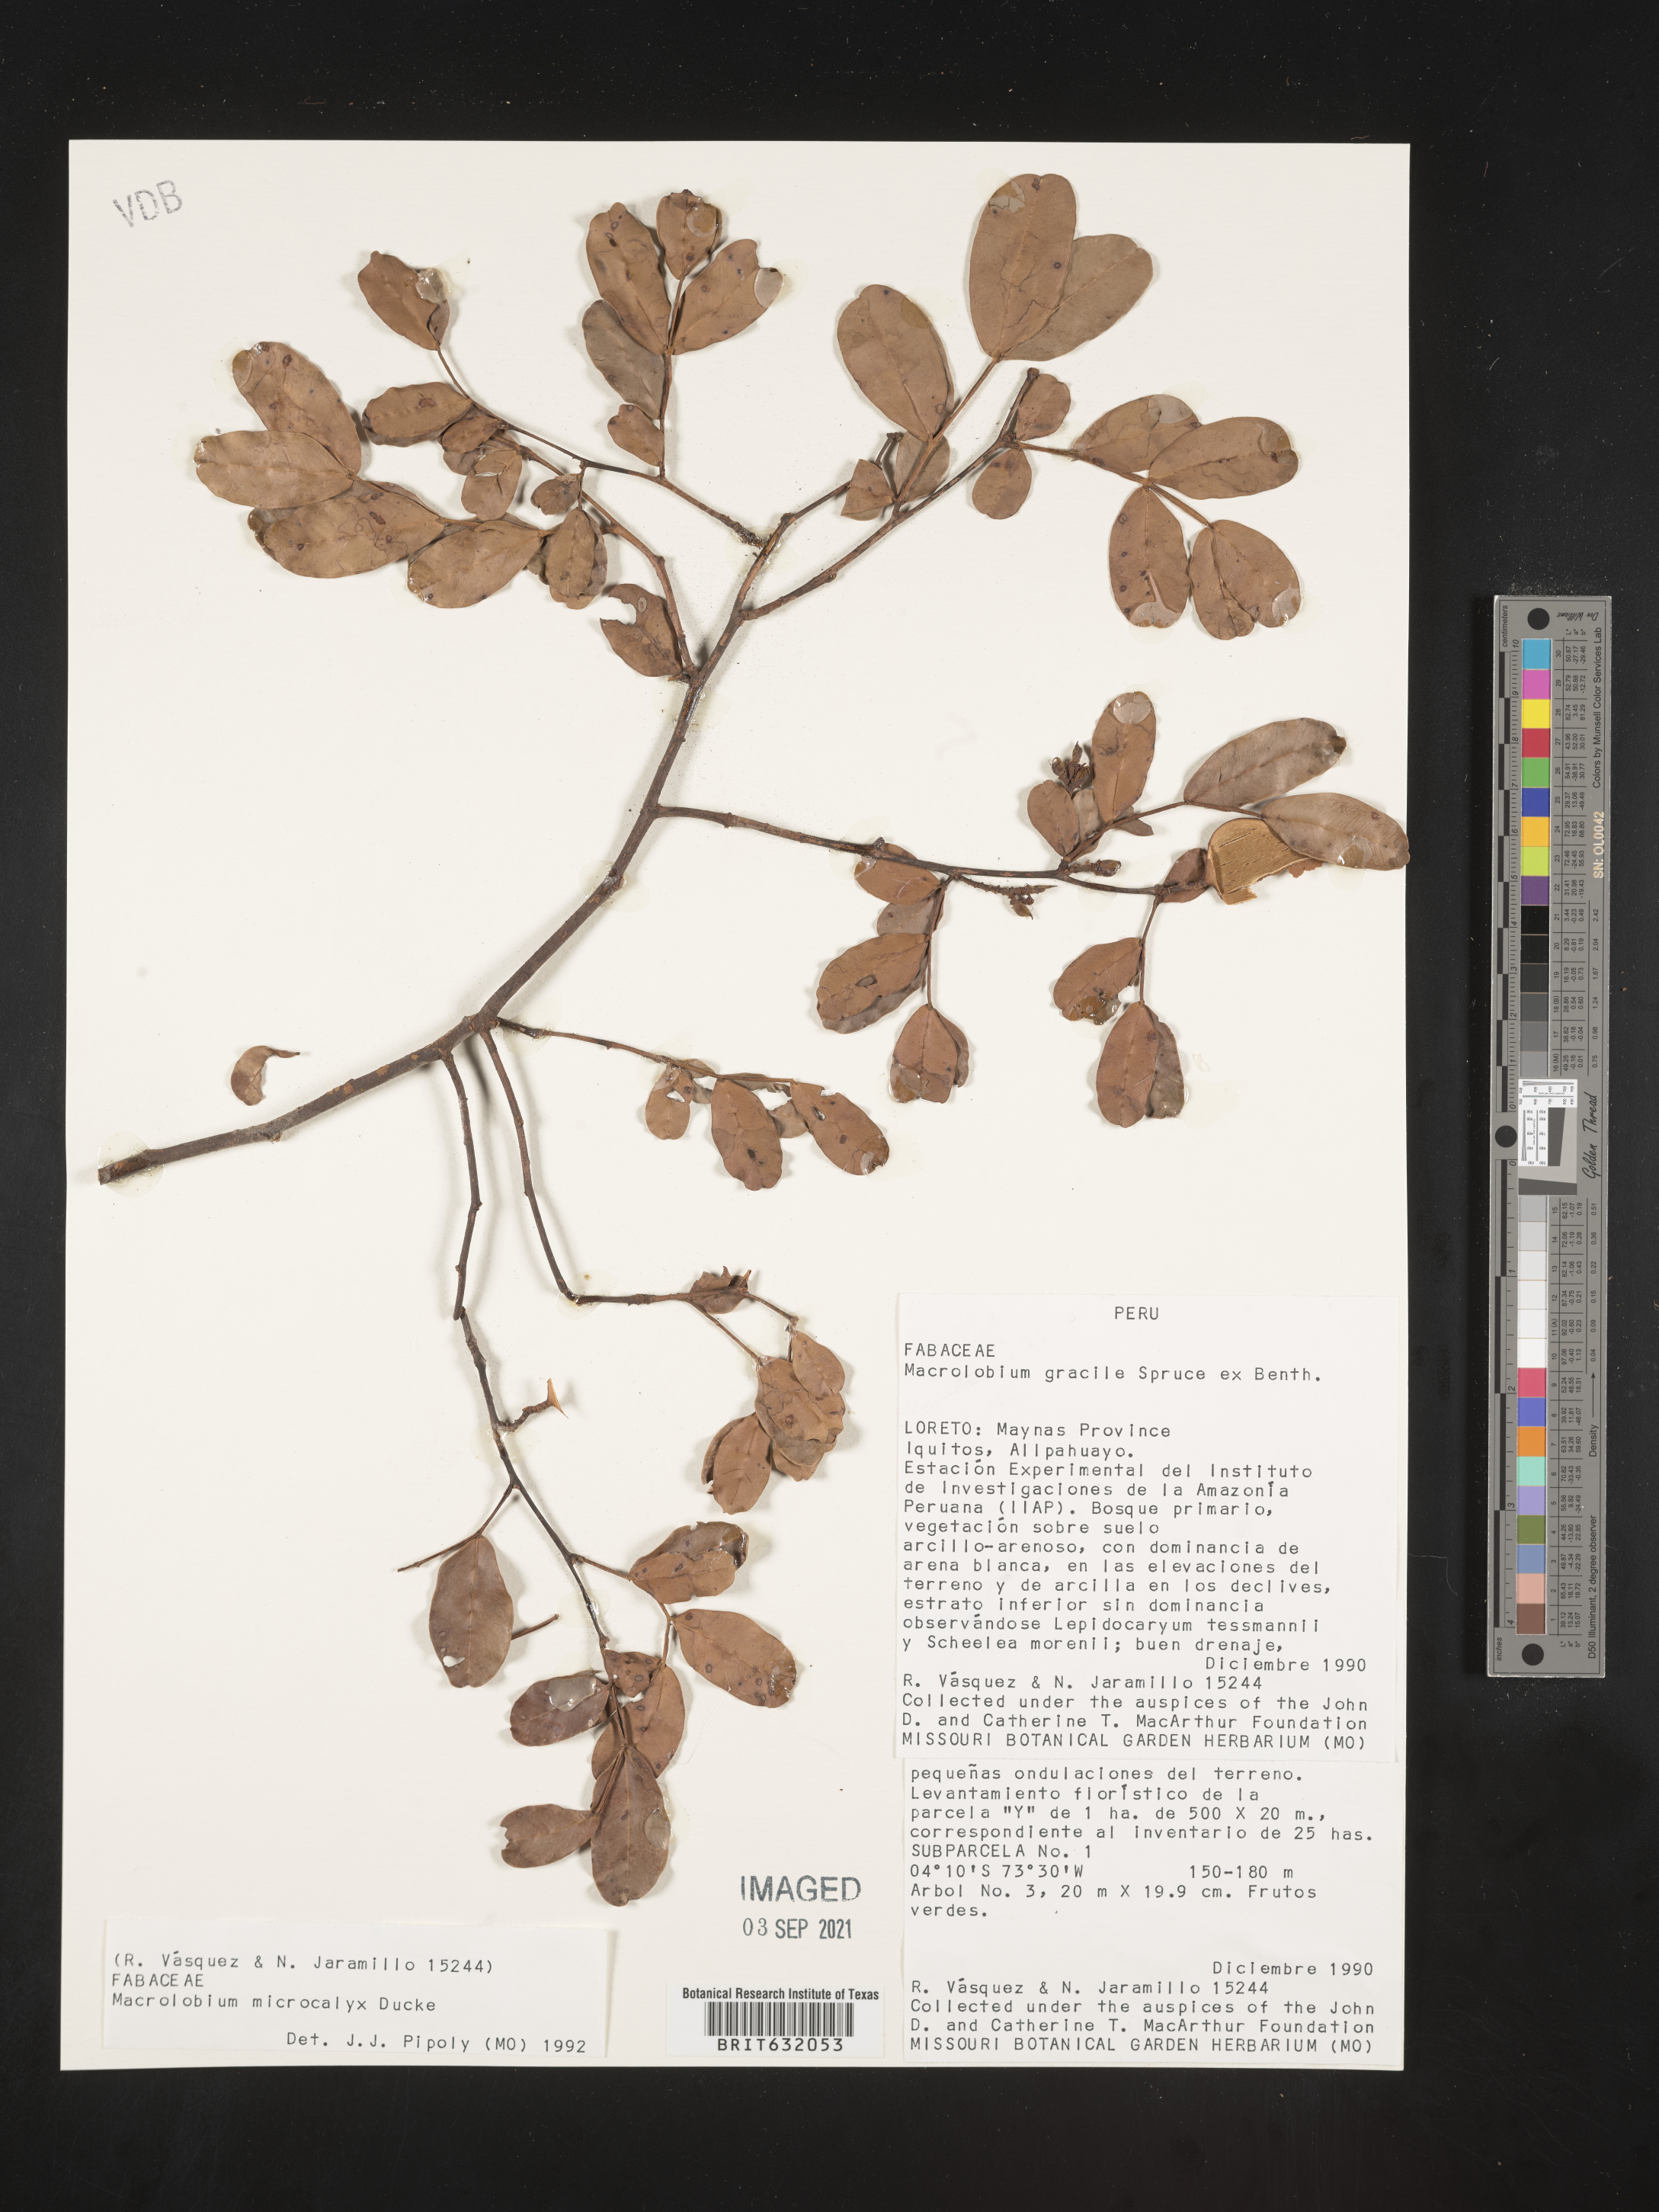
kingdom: Plantae
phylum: Tracheophyta
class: Magnoliopsida
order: Fabales
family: Fabaceae
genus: Macrolobium
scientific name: Macrolobium
